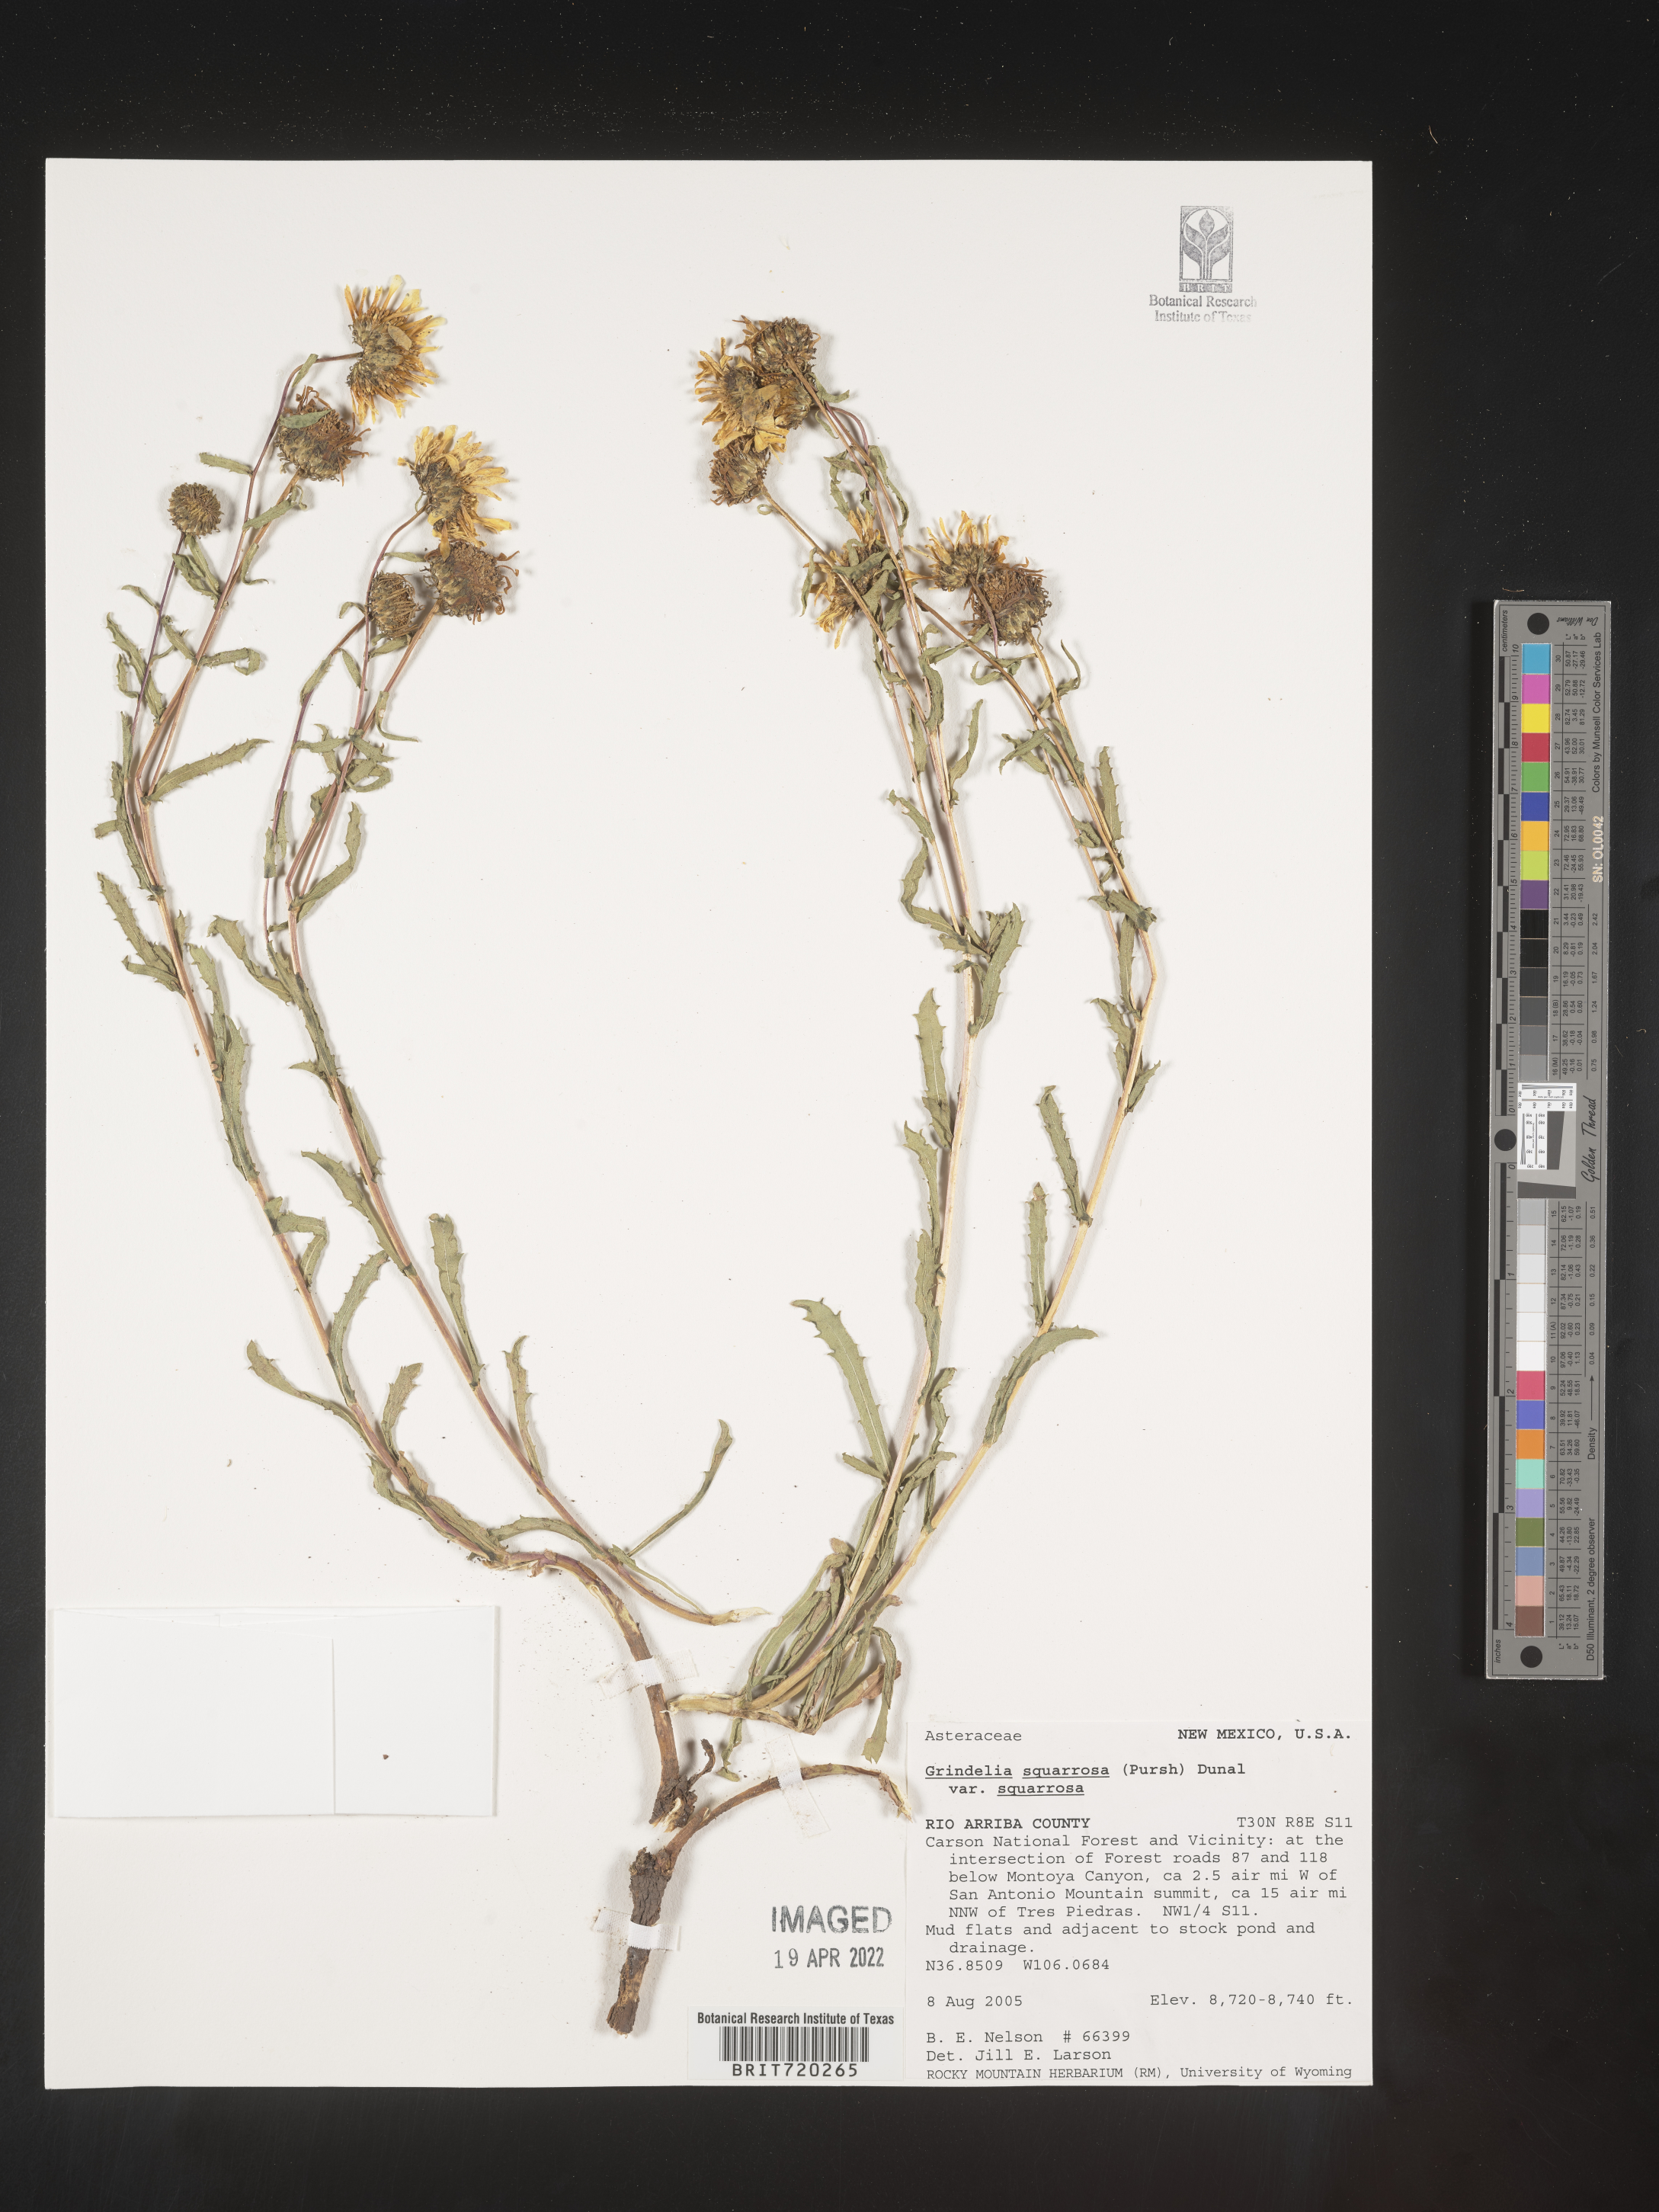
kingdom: Plantae
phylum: Tracheophyta
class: Magnoliopsida
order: Asterales
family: Asteraceae
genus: Grindelia
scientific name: Grindelia squarrosa
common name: Curly-cup gumweed
